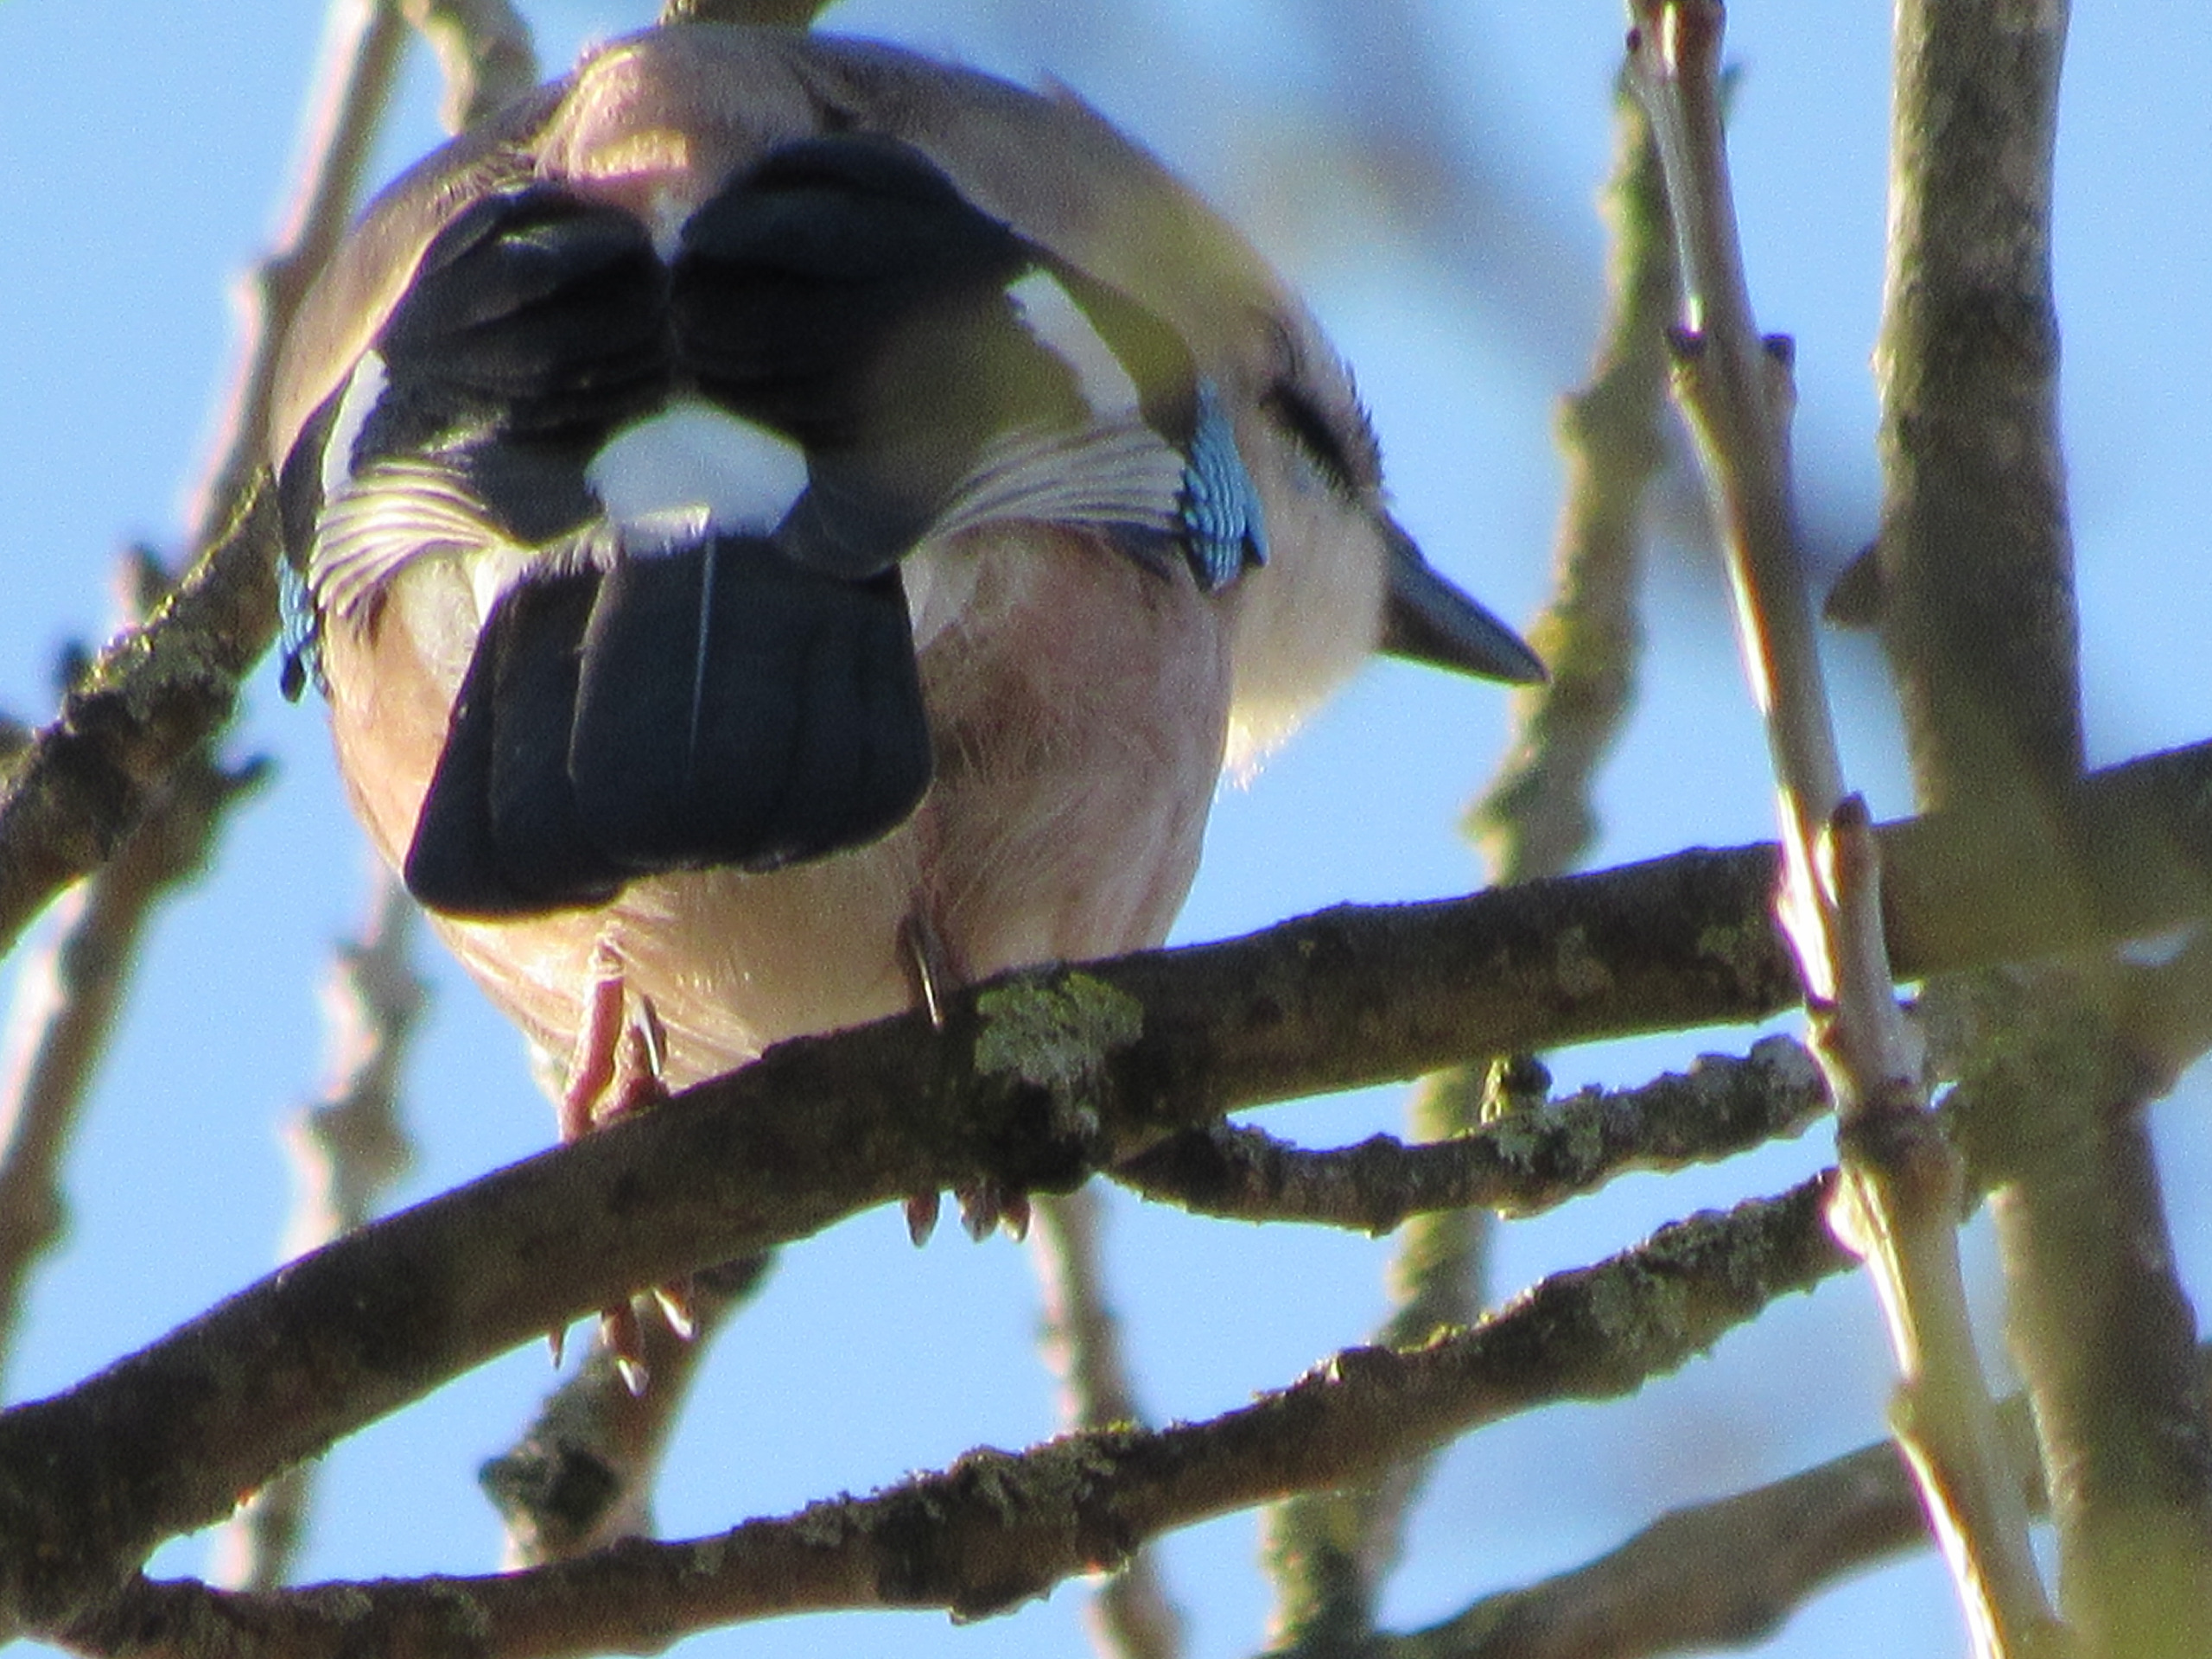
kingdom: Animalia
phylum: Chordata
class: Aves
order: Passeriformes
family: Corvidae
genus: Garrulus
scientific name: Garrulus glandarius
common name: Skovskade
